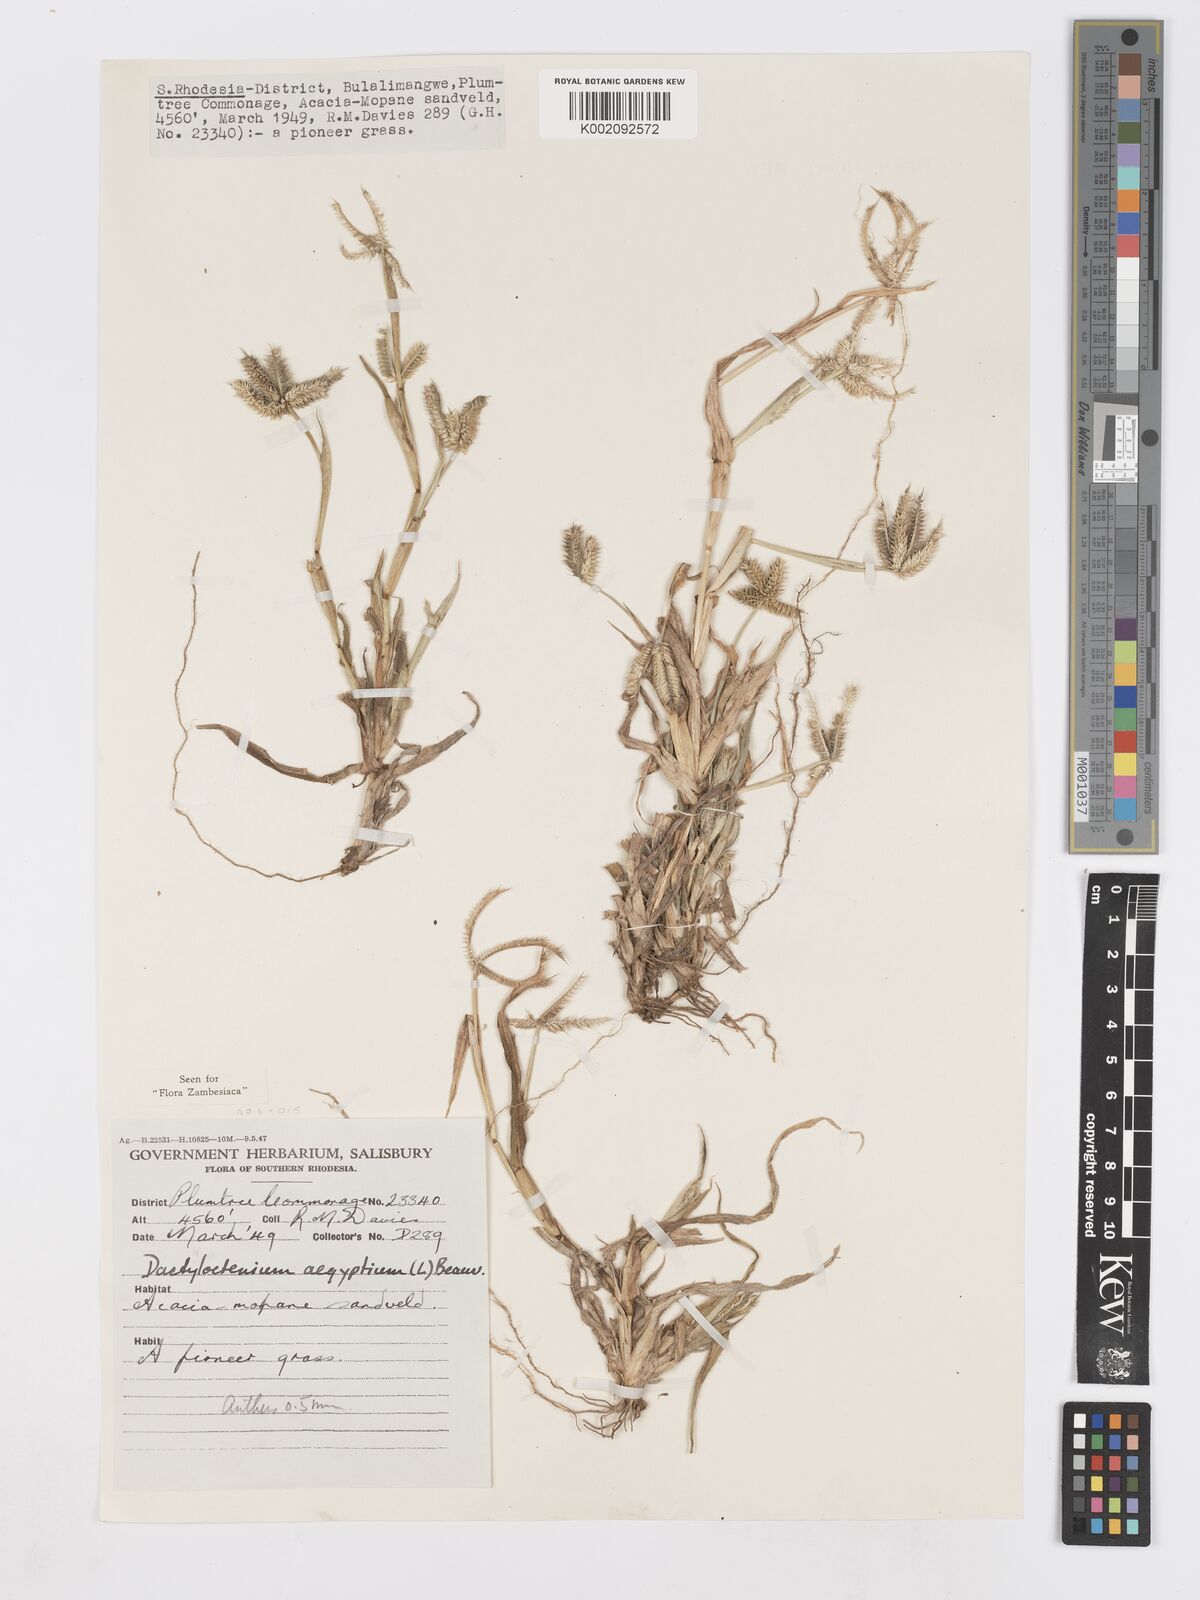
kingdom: Plantae
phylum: Tracheophyta
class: Liliopsida
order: Poales
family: Poaceae
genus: Dactyloctenium
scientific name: Dactyloctenium aegyptium
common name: Egyptian grass
